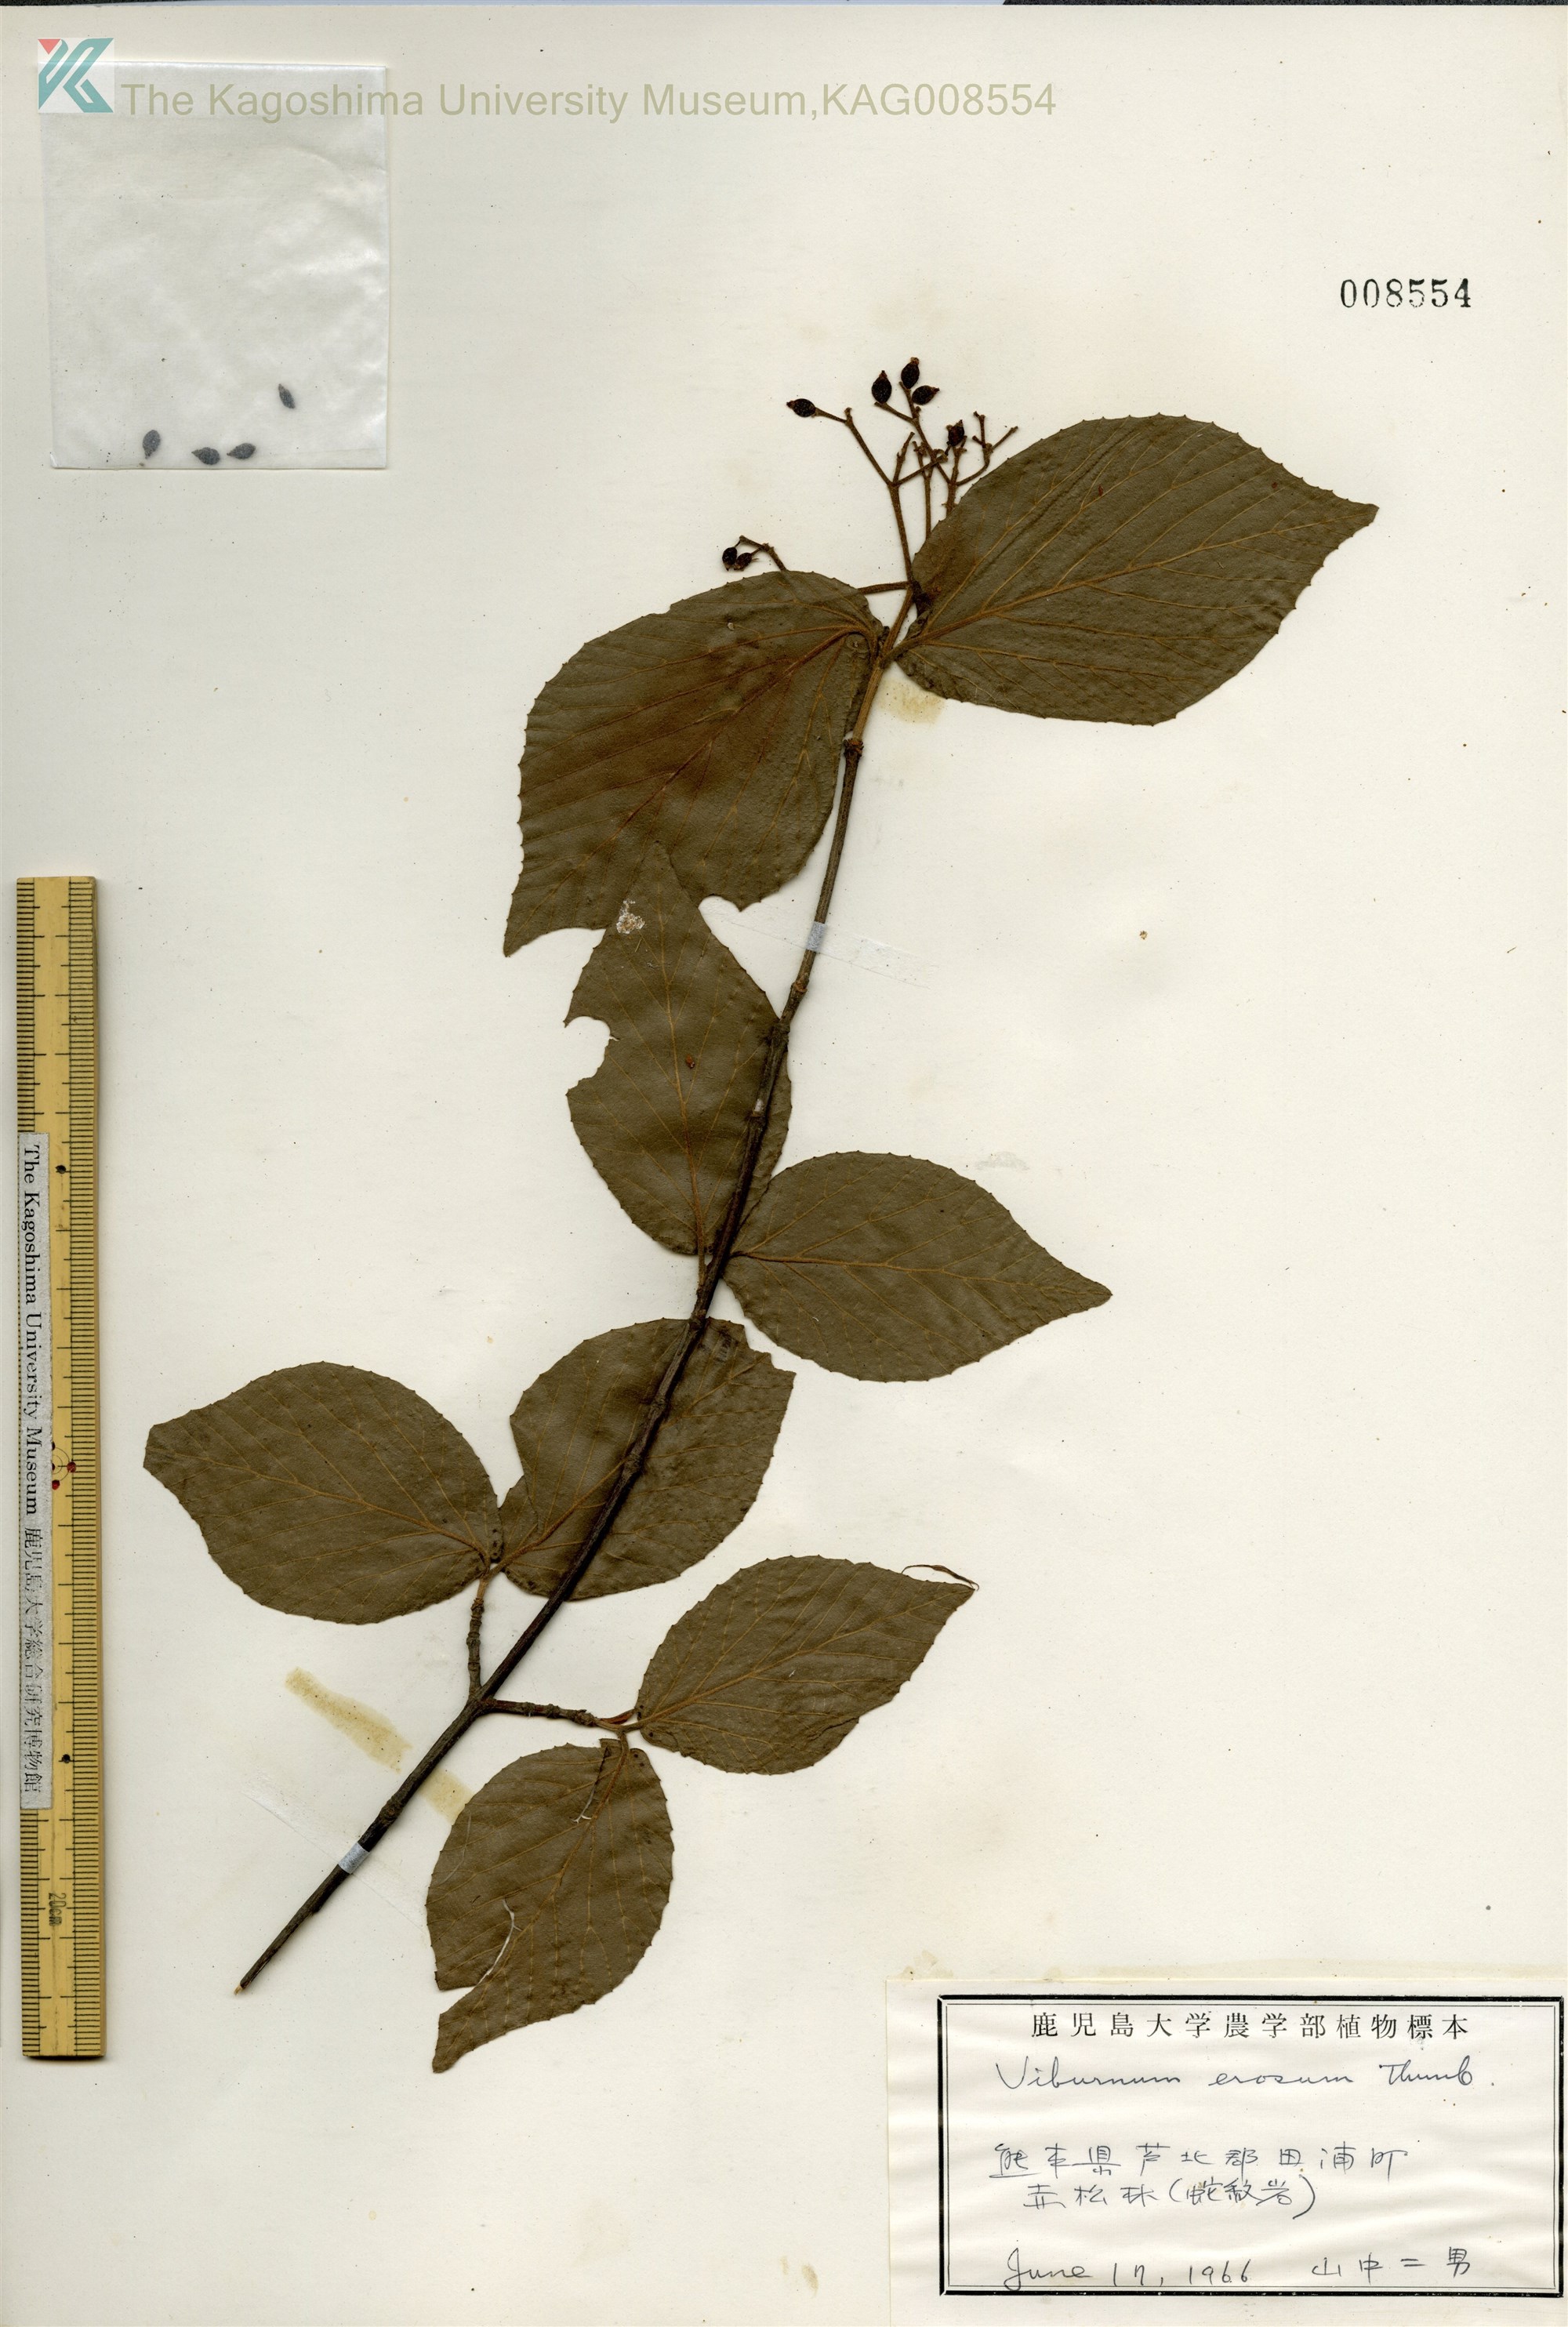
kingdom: Plantae
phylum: Tracheophyta
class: Magnoliopsida
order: Dipsacales
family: Viburnaceae
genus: Viburnum
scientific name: Viburnum erosum
